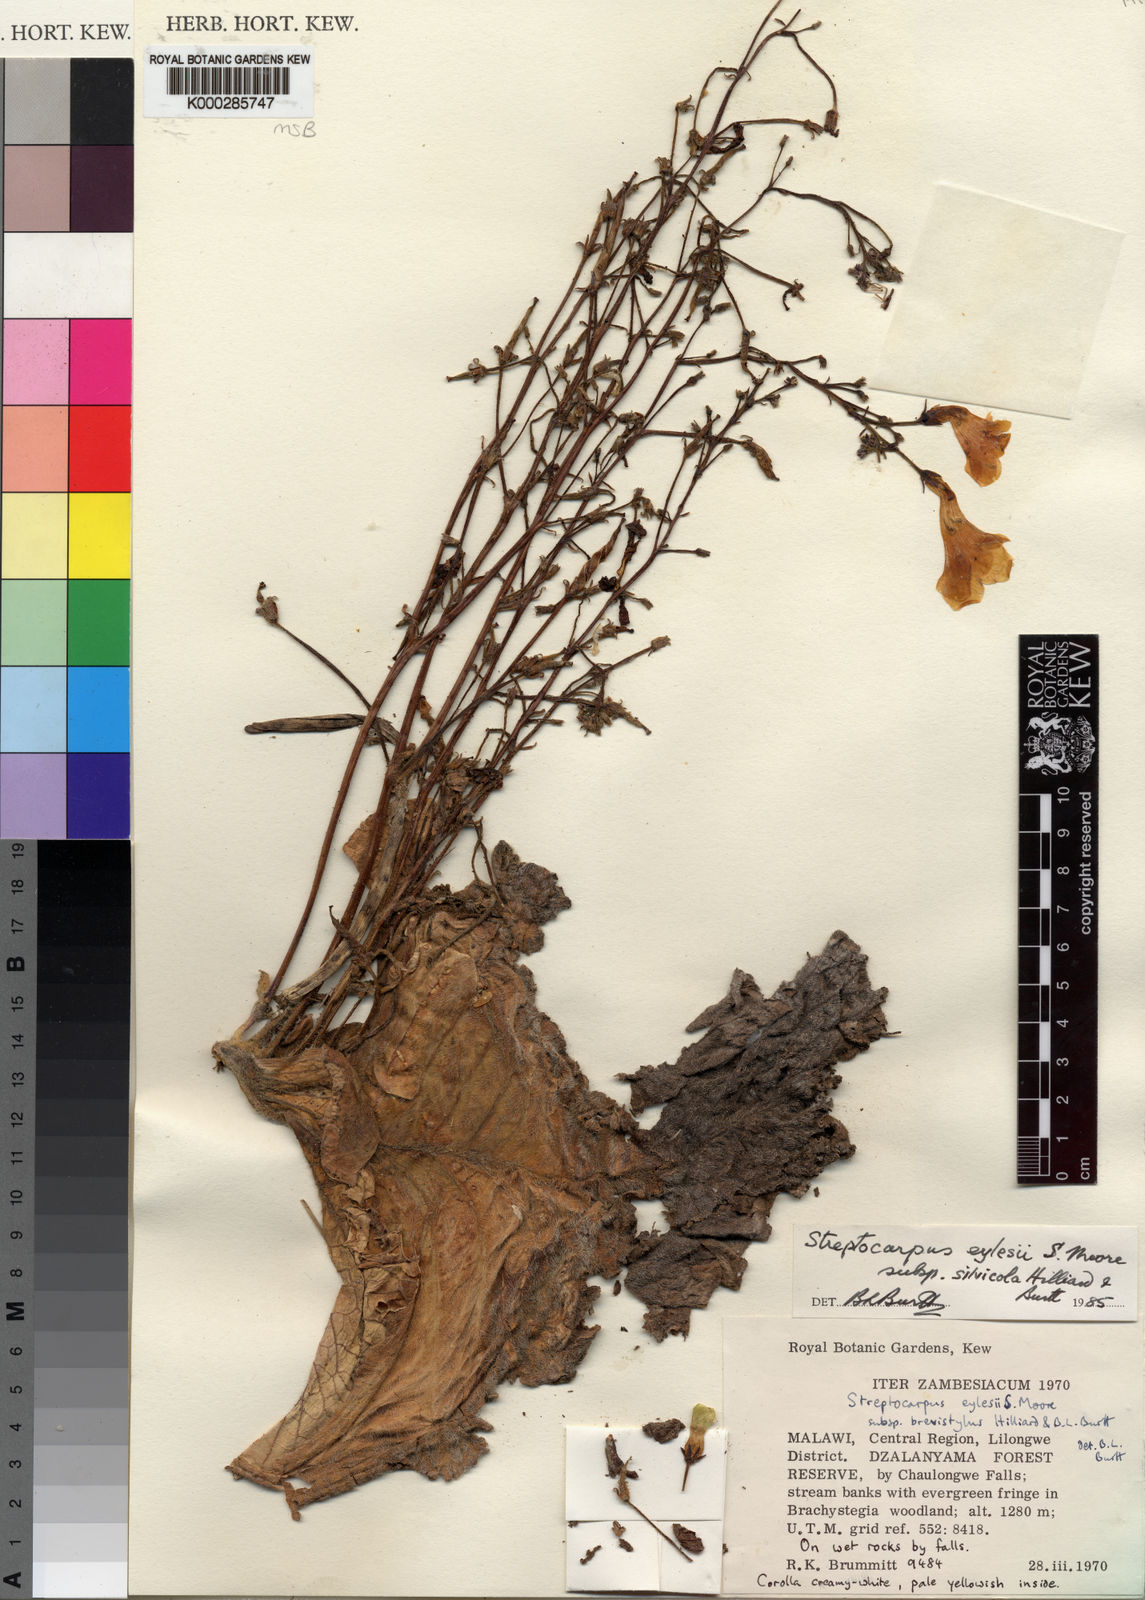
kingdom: Plantae
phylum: Tracheophyta
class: Magnoliopsida
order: Lamiales
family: Gesneriaceae
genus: Streptocarpus
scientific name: Streptocarpus eylesii
